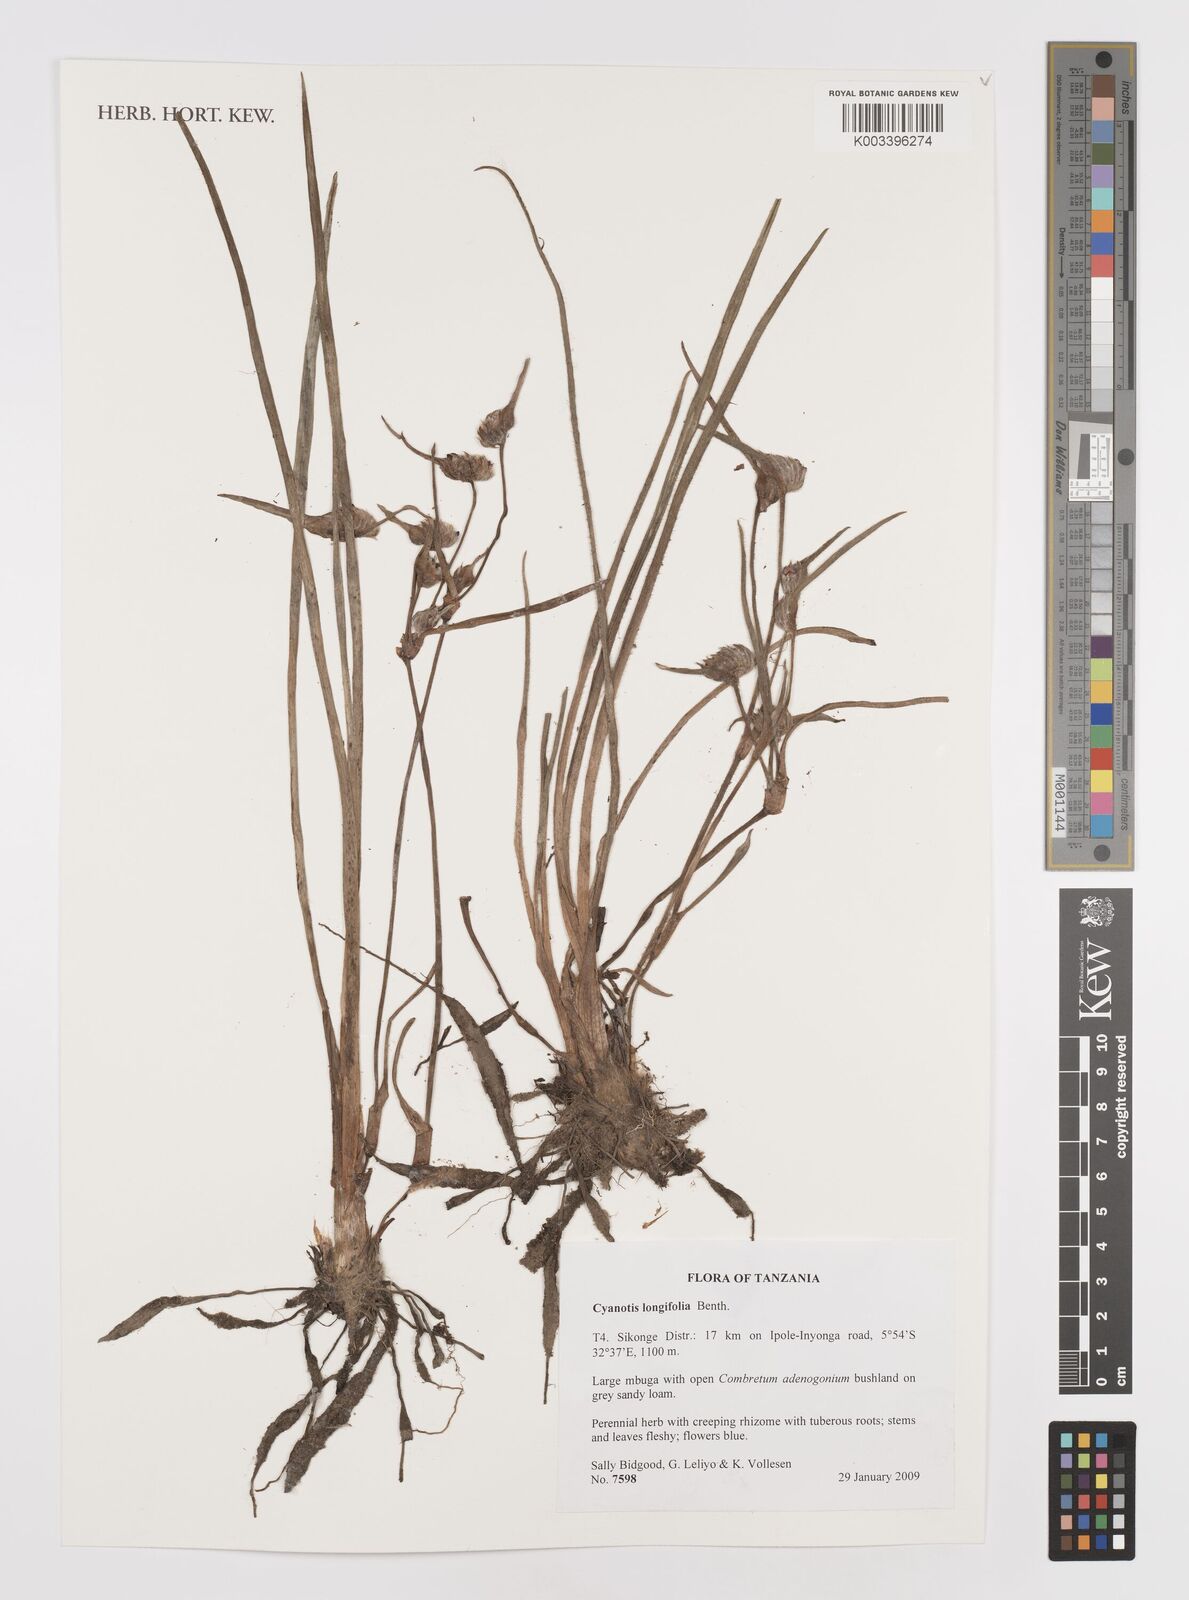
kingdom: Plantae
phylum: Tracheophyta
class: Liliopsida
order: Commelinales
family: Commelinaceae
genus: Cyanotis
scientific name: Cyanotis longifolia
